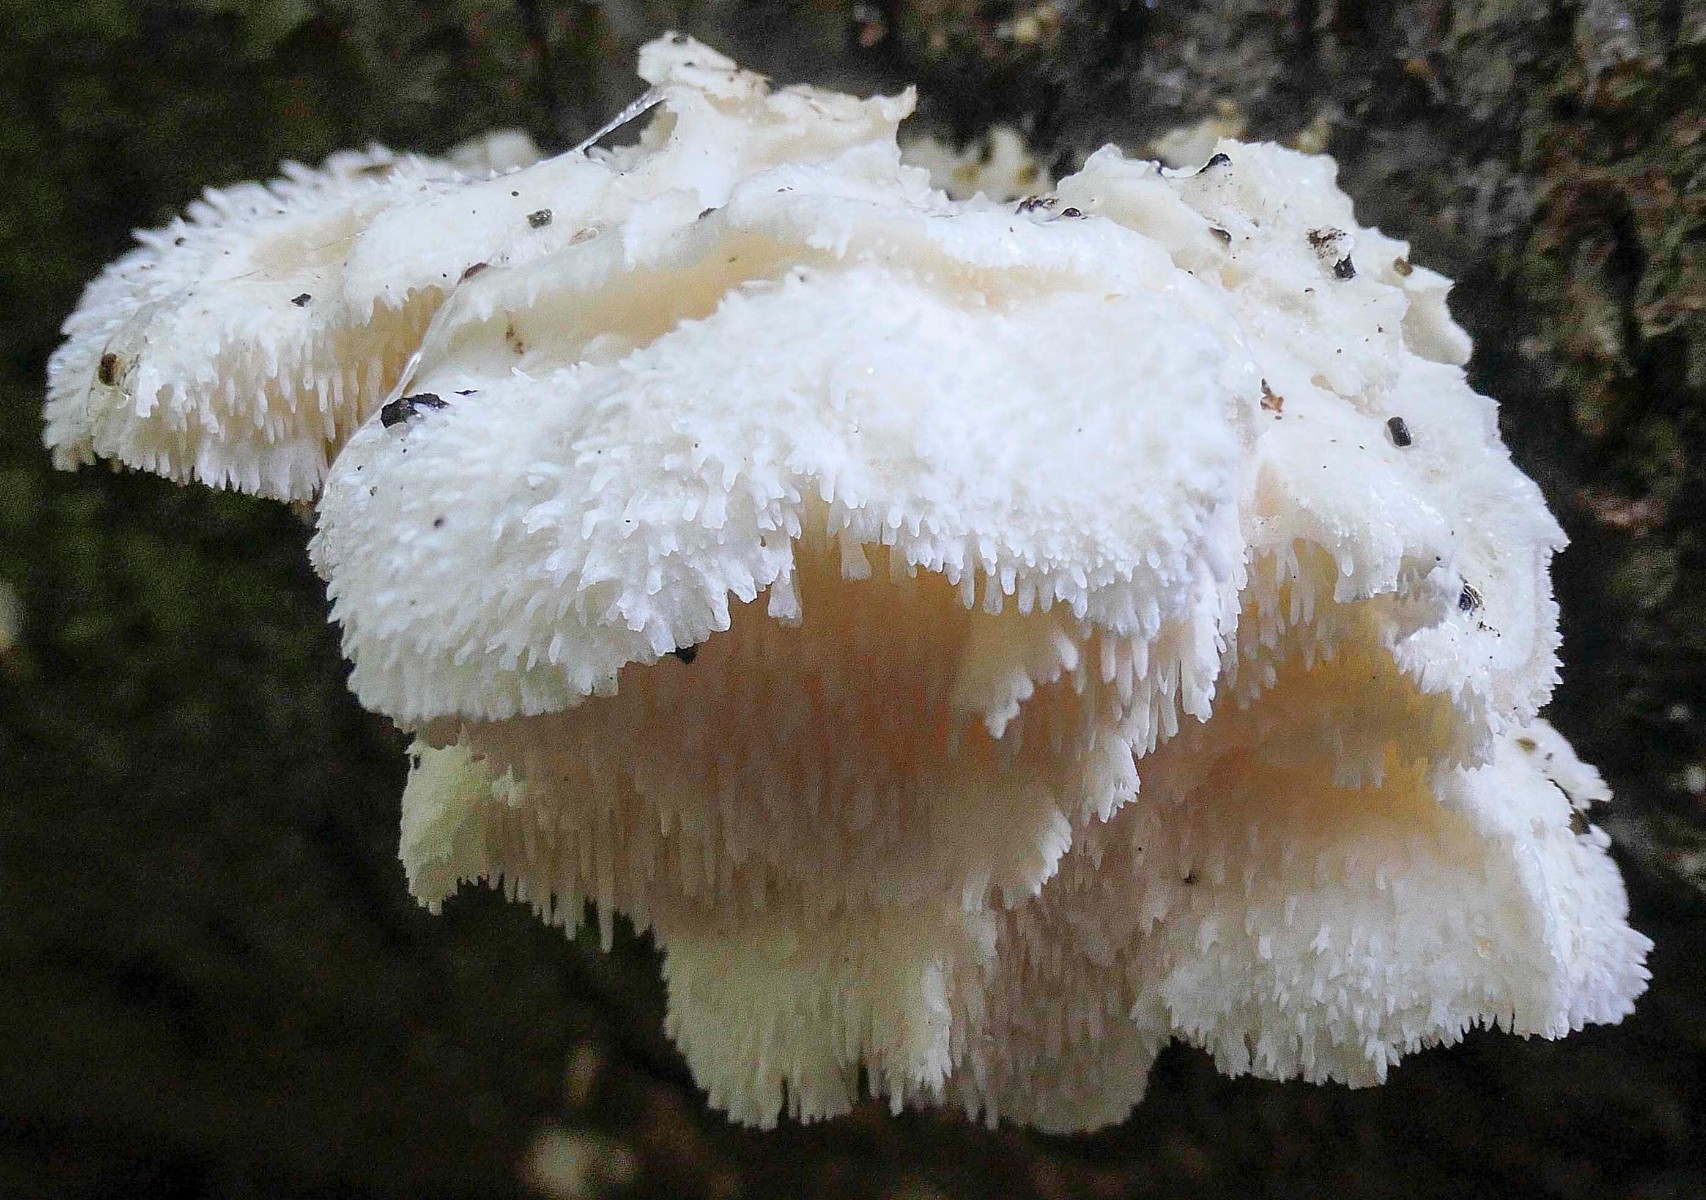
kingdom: Fungi
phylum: Basidiomycota
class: Agaricomycetes
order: Russulales
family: Hericiaceae
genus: Hericium
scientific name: Hericium cirrhatum
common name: børstepigsvamp
